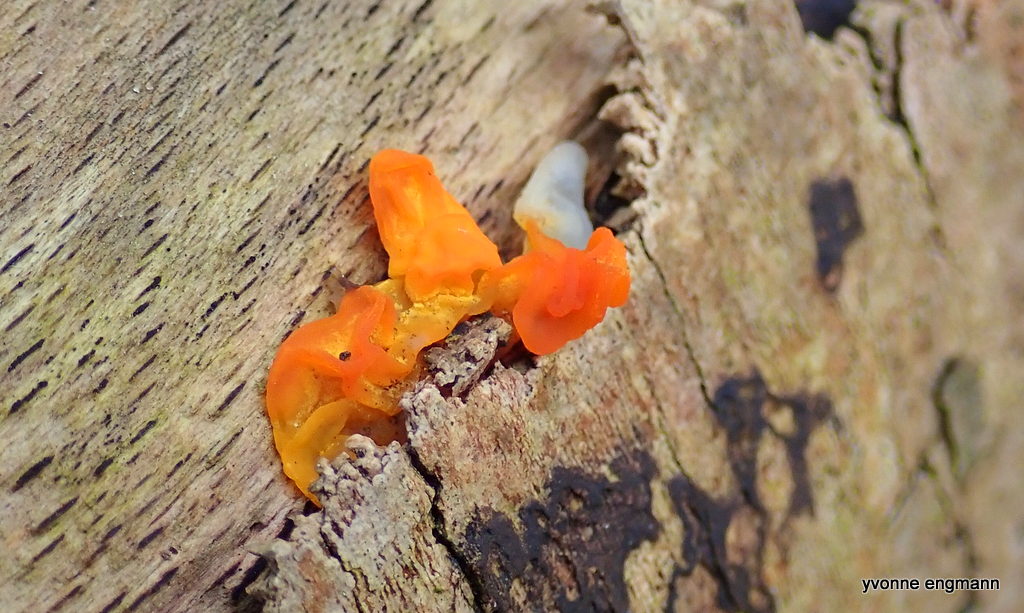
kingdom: Fungi
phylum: Basidiomycota
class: Tremellomycetes
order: Tremellales
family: Tremellaceae
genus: Tremella
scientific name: Tremella mesenterica
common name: gul bævresvamp
